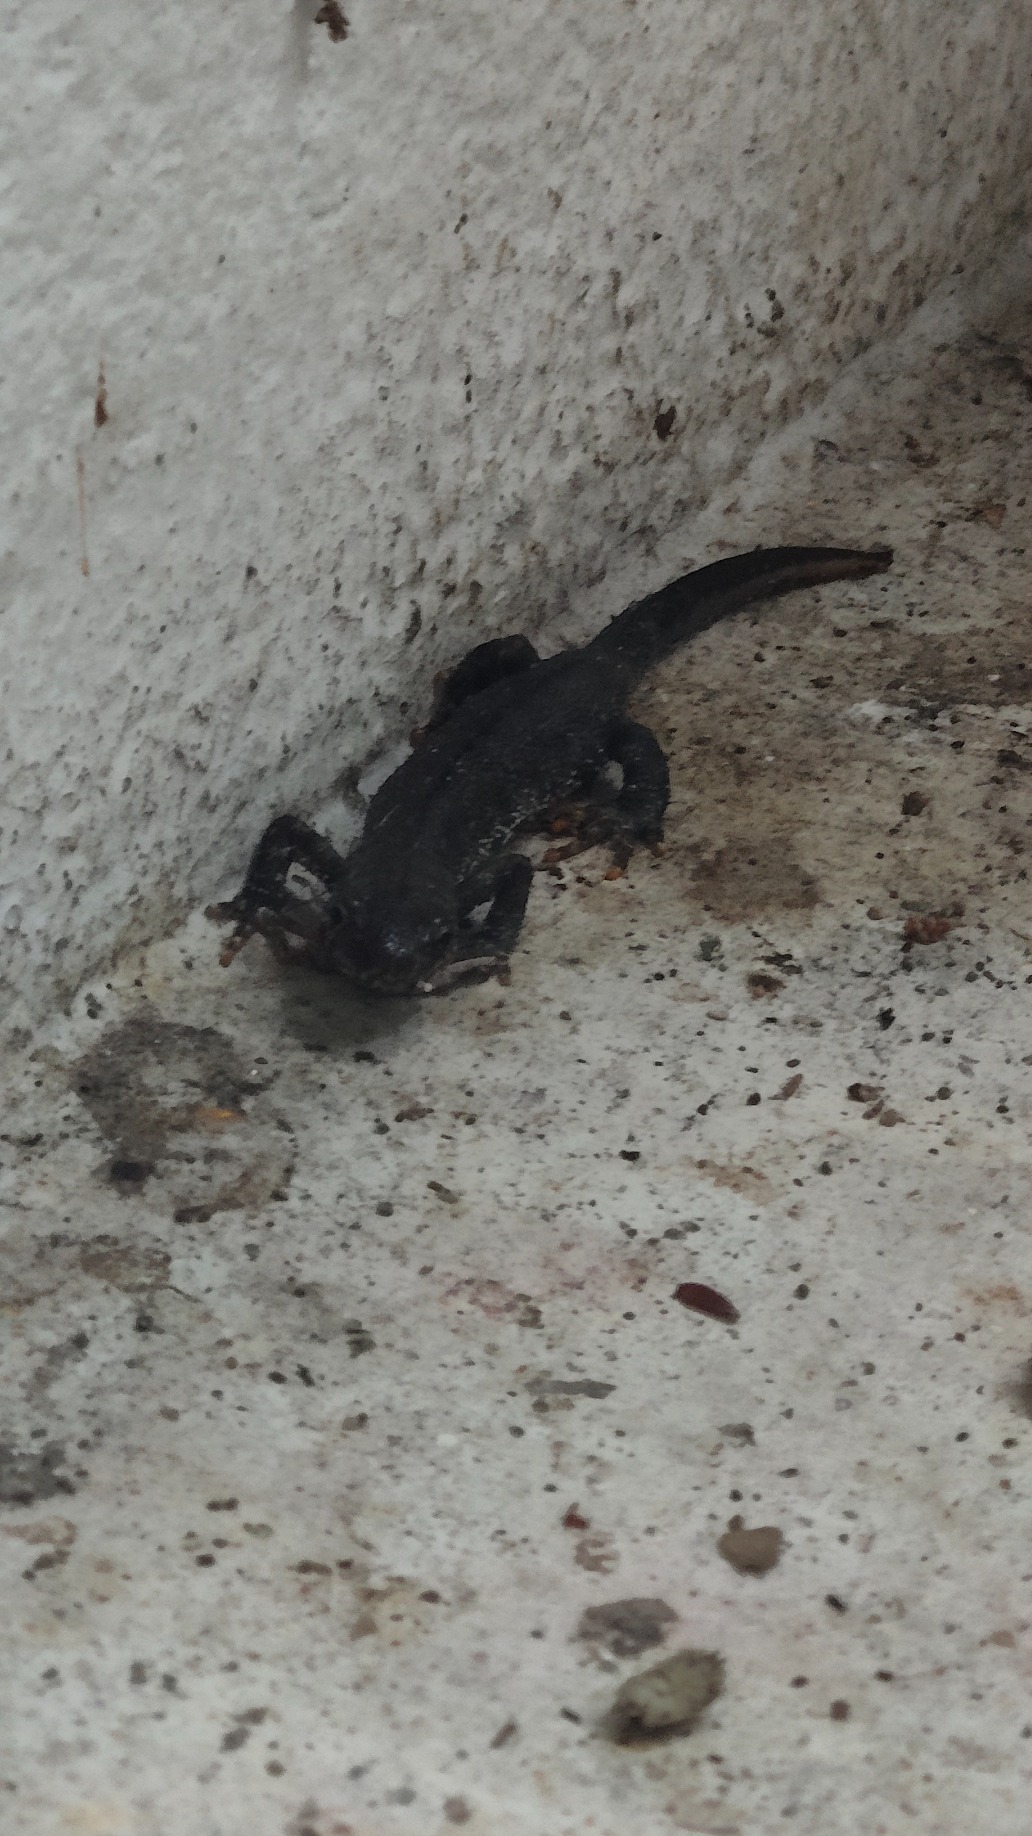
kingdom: Animalia
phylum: Chordata
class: Amphibia
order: Caudata
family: Salamandridae
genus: Triturus
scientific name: Triturus cristatus
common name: Stor vandsalamander
